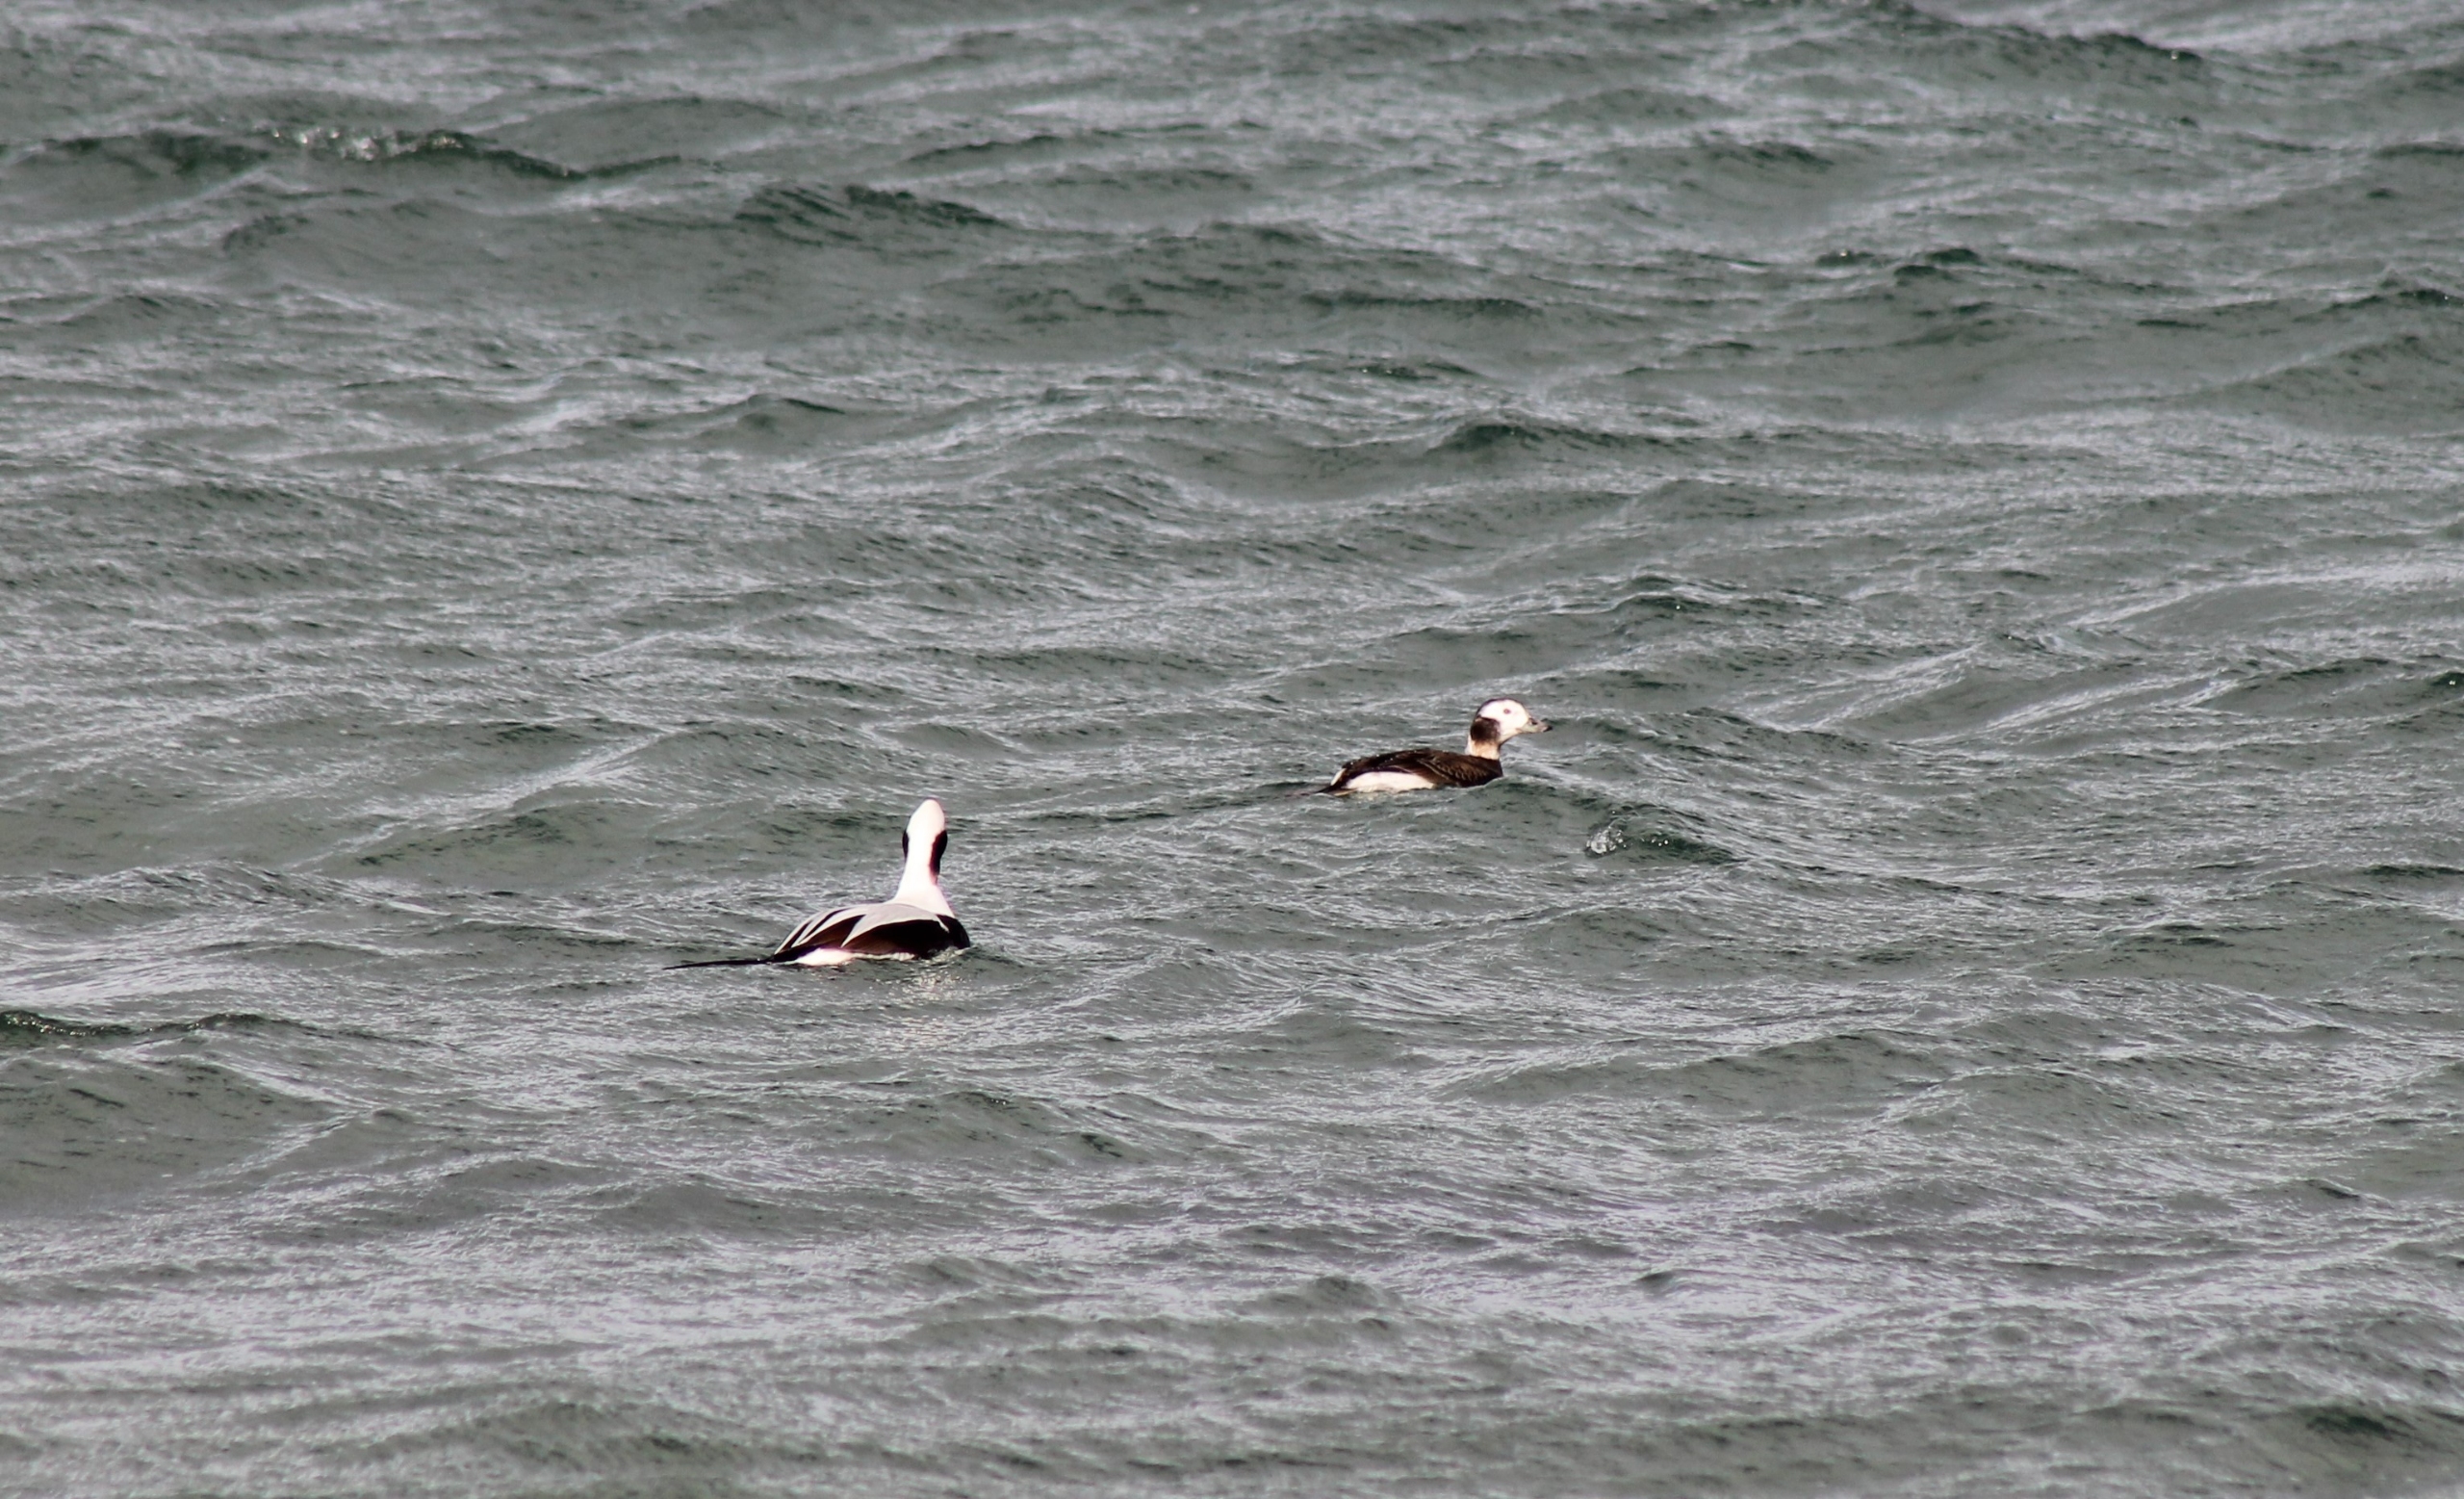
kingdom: Animalia
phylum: Chordata
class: Aves
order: Anseriformes
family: Anatidae
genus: Clangula
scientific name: Clangula hyemalis
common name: Havlit
